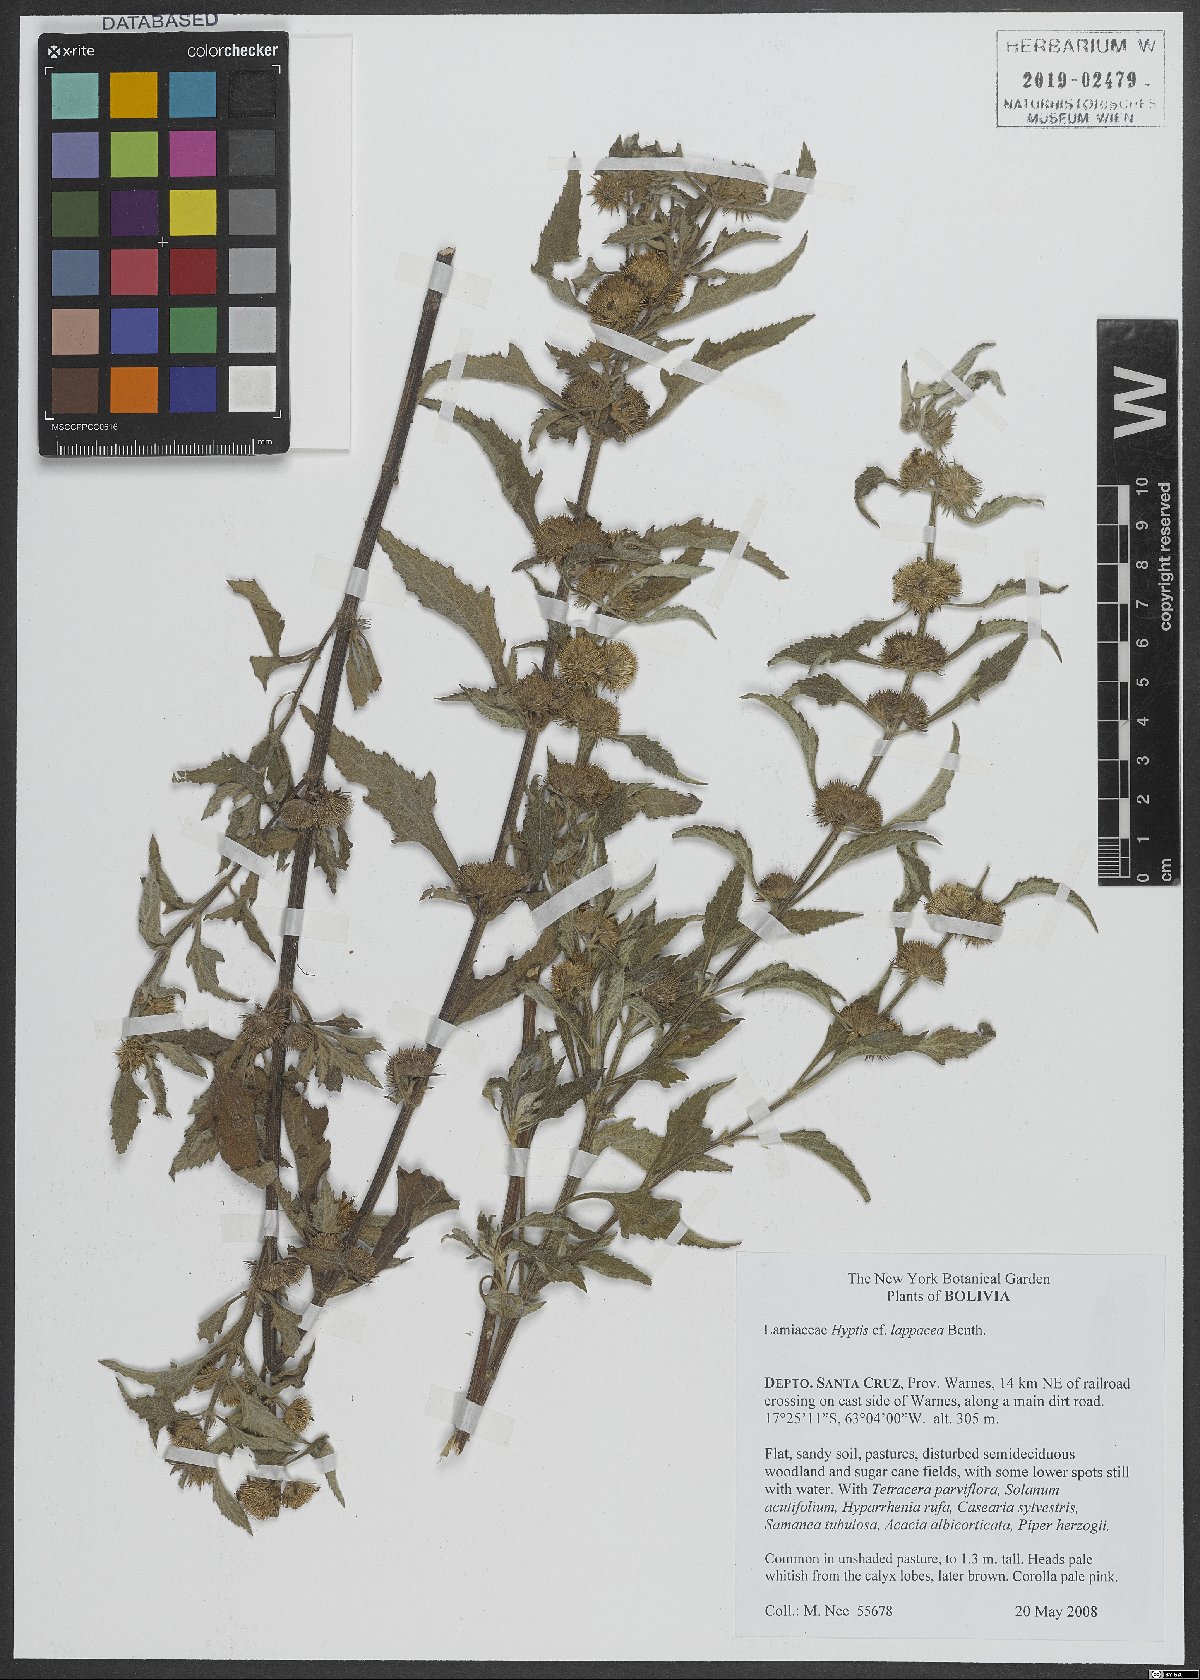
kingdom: Plantae
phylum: Tracheophyta
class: Magnoliopsida
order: Lamiales
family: Lamiaceae
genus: Hyptis
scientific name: Hyptis lappacea
